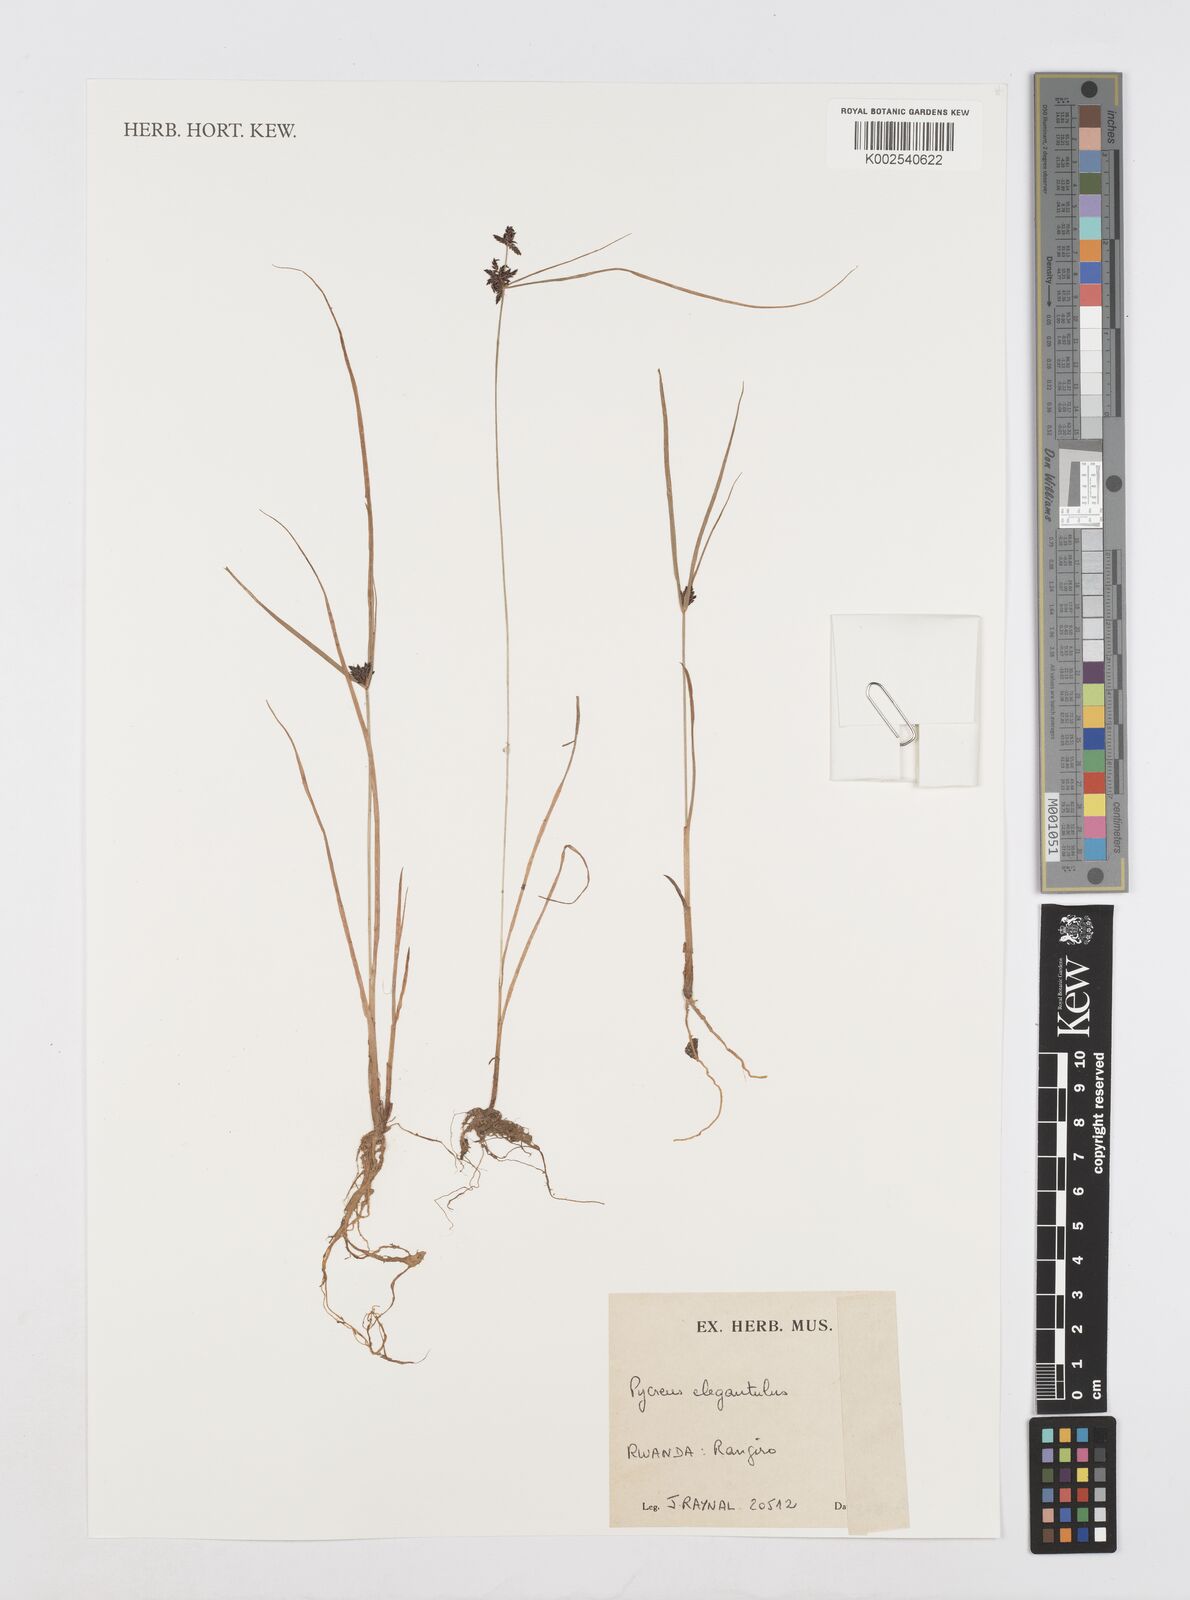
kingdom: Plantae
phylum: Tracheophyta
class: Liliopsida
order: Poales
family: Cyperaceae
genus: Cyperus
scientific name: Cyperus elegantulus
